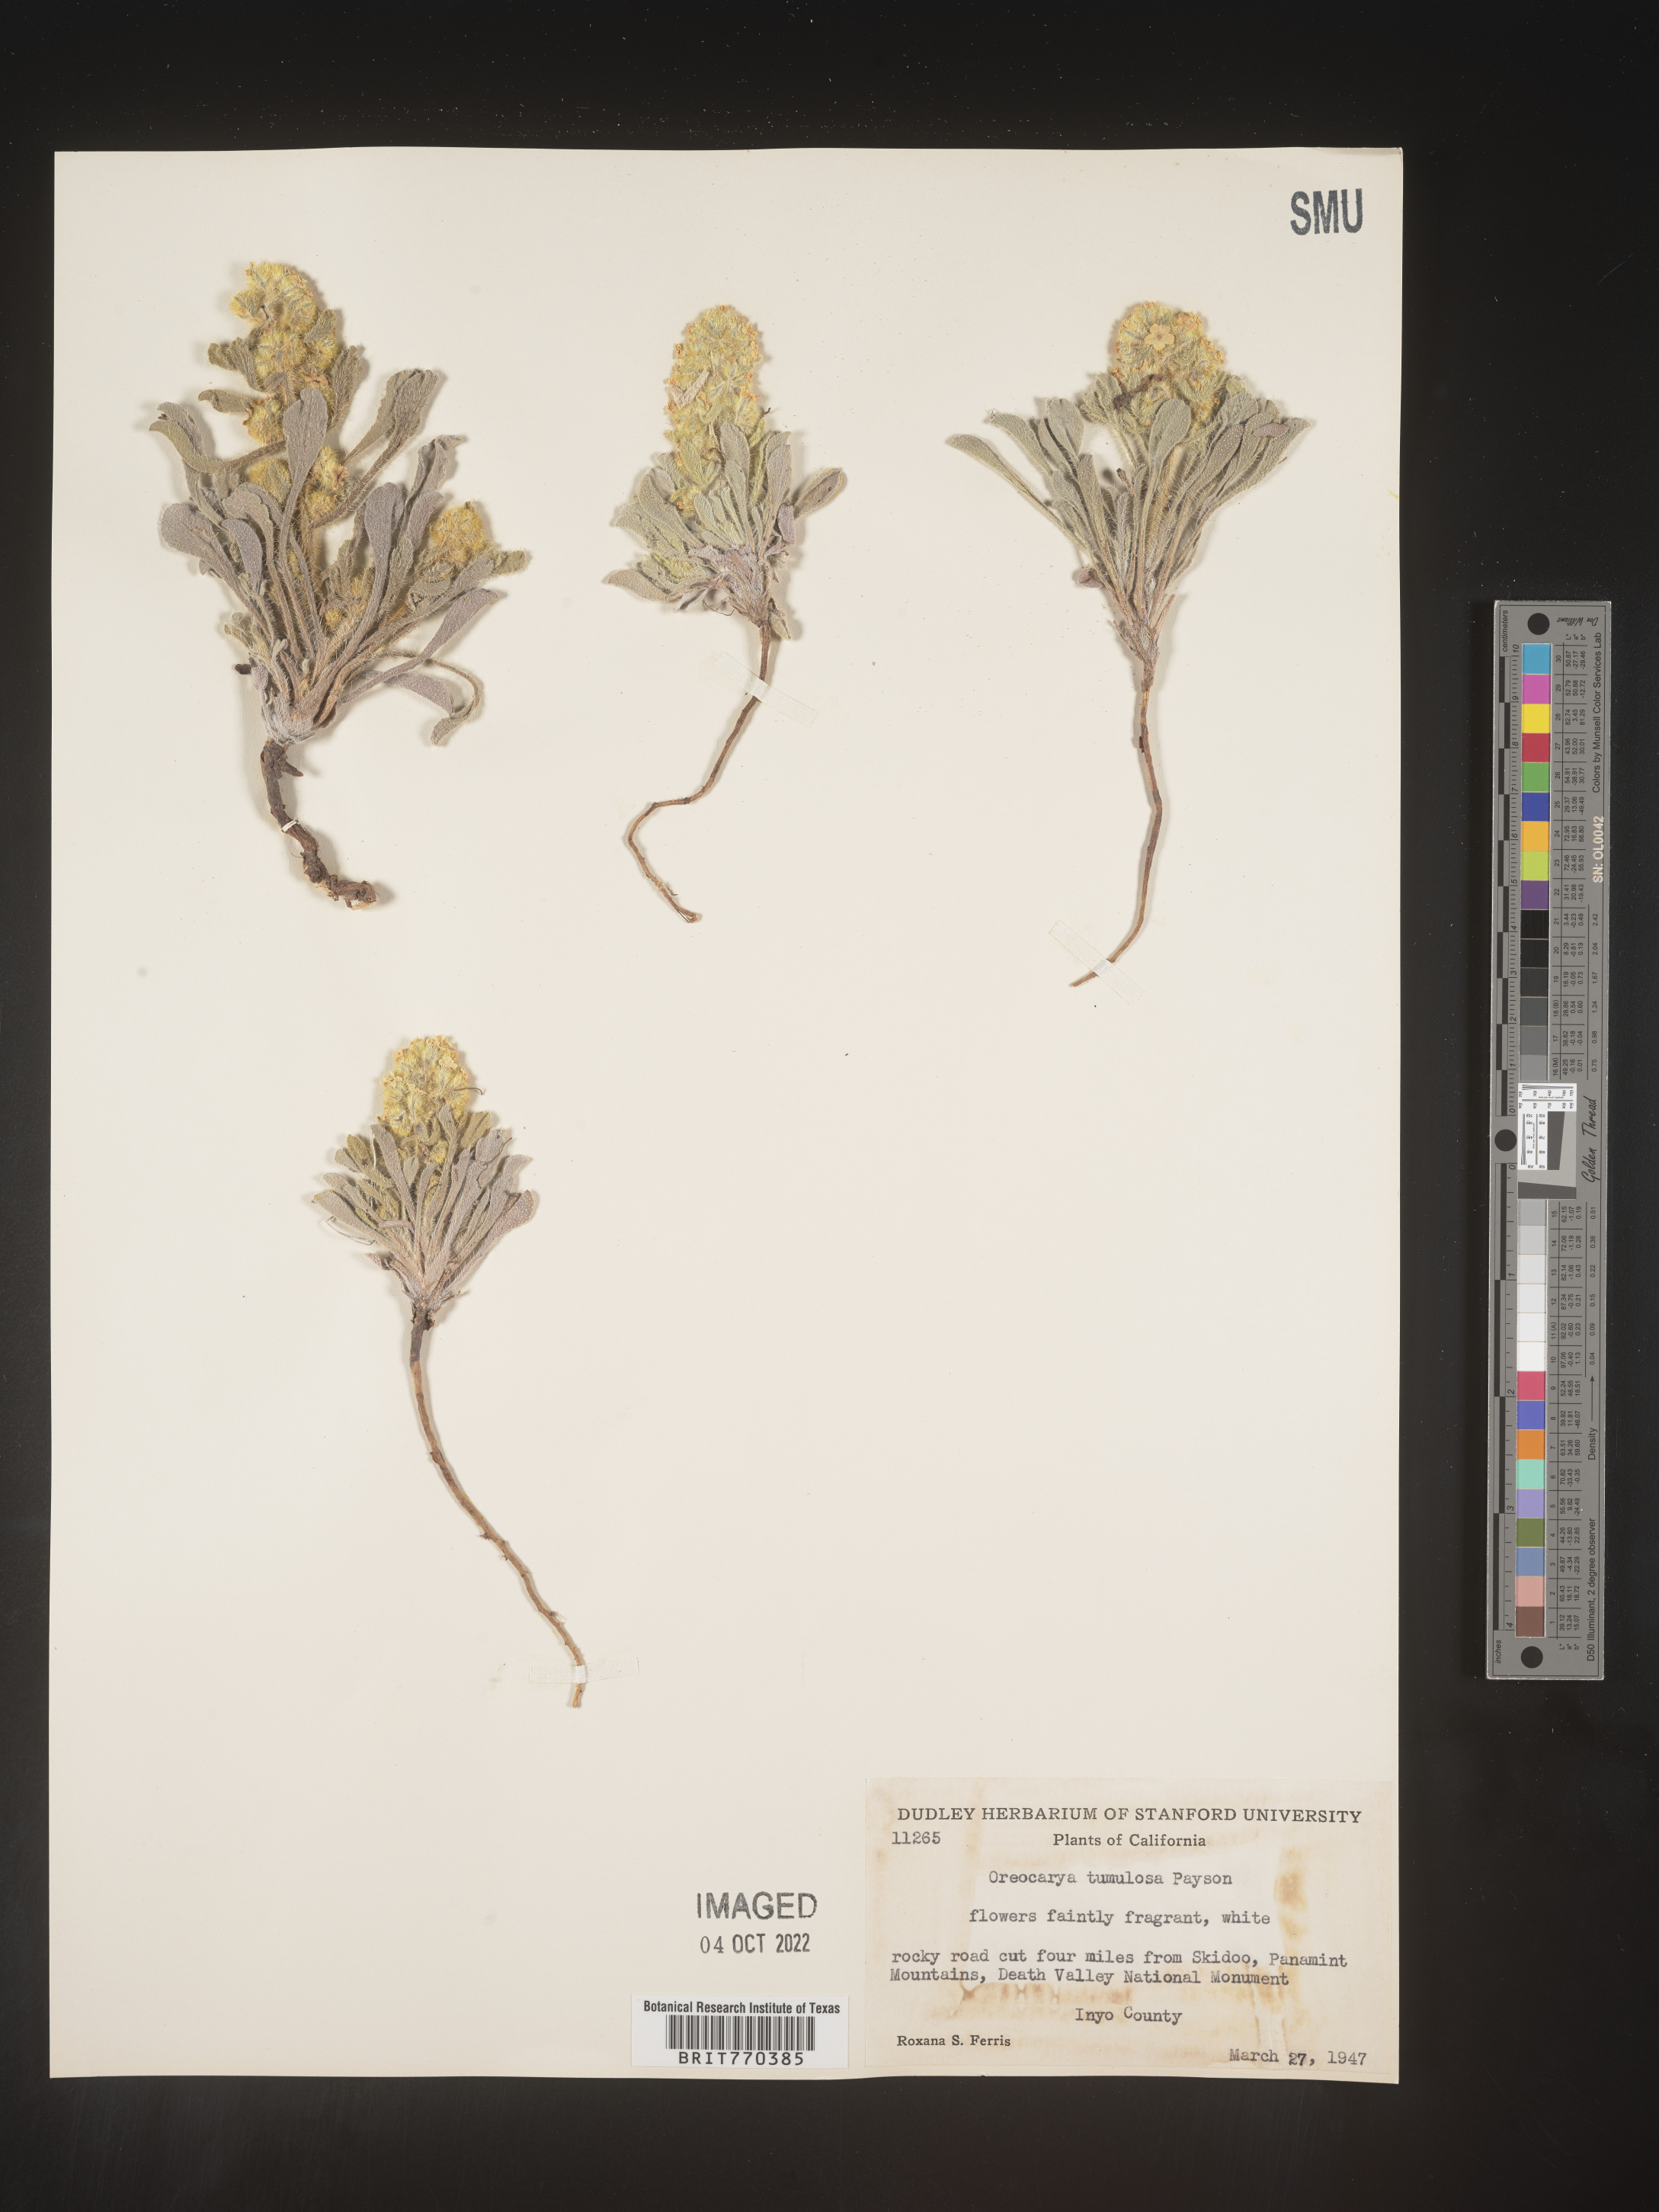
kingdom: Plantae
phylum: Tracheophyta
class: Magnoliopsida
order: Boraginales
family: Boraginaceae
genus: Oreocarya
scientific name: Oreocarya
